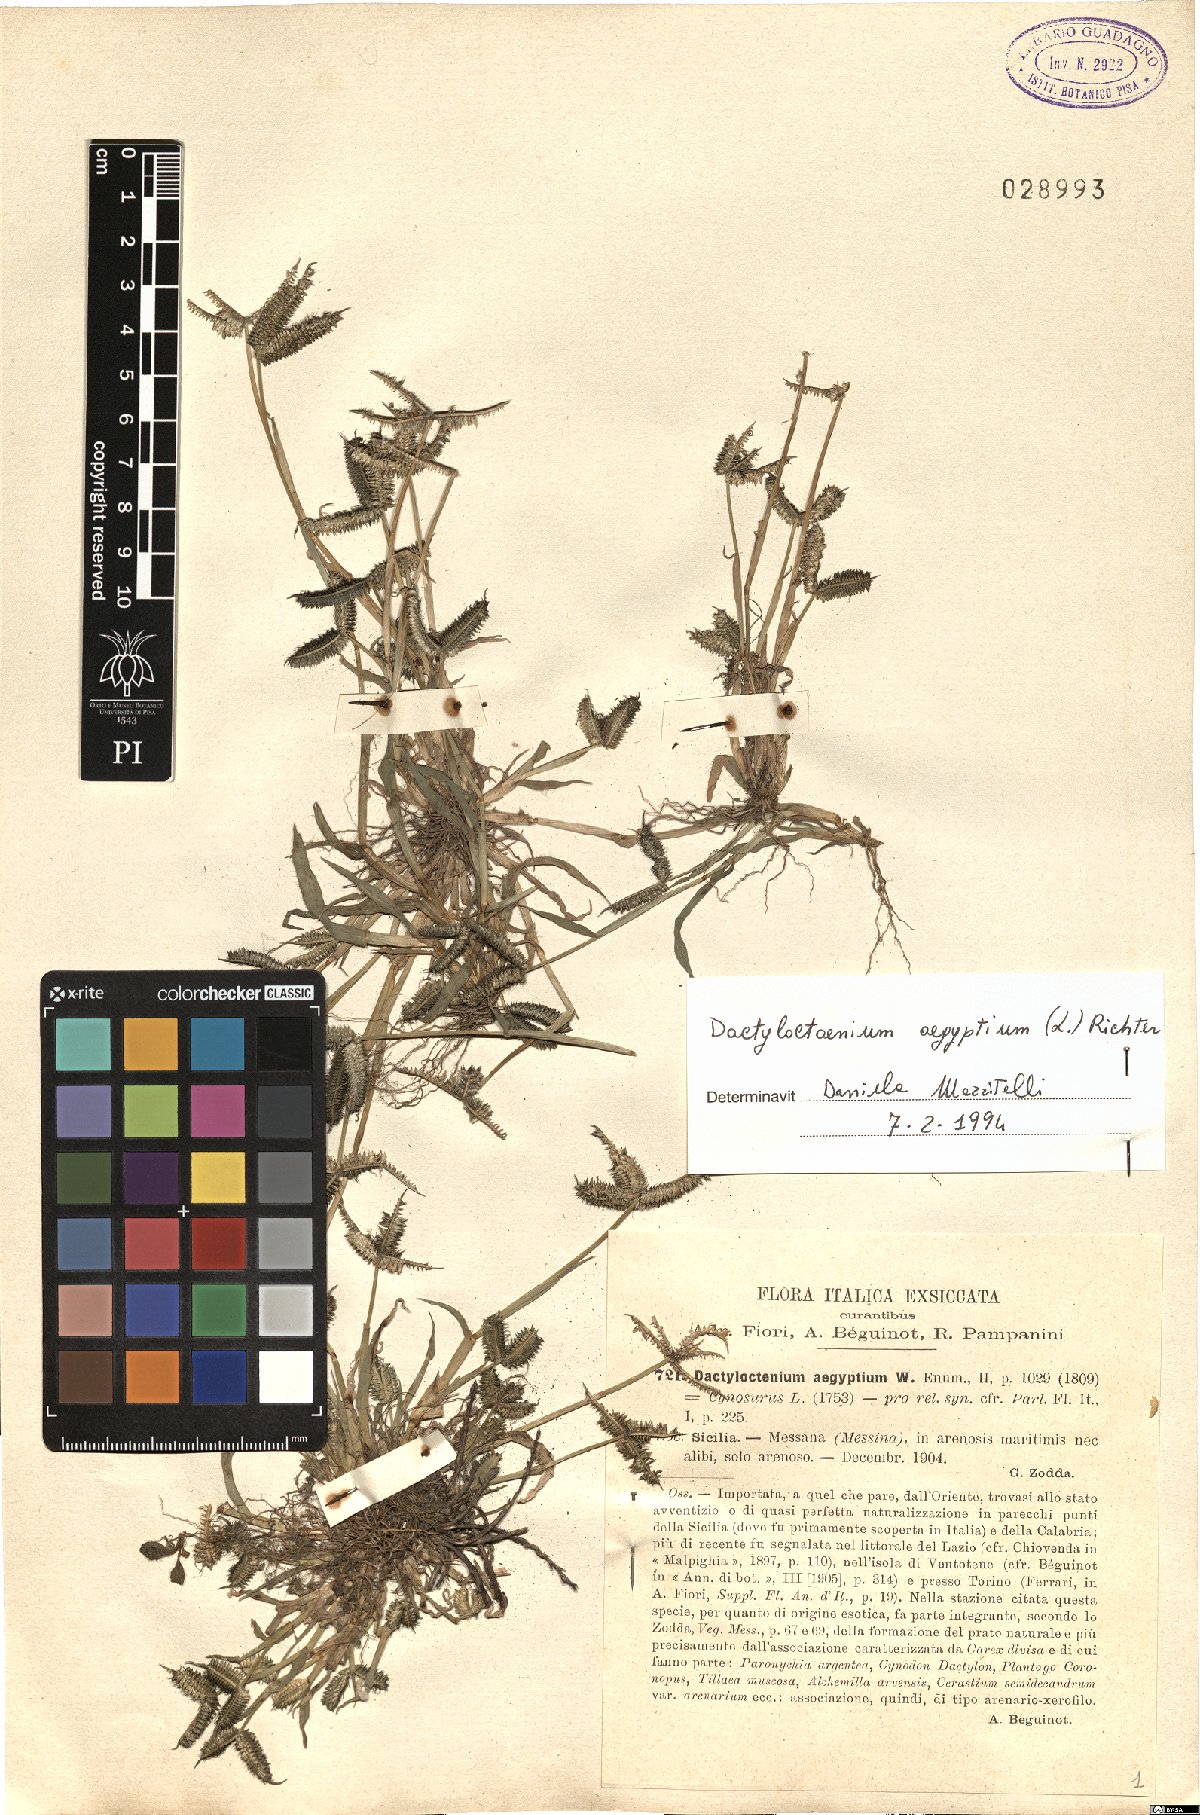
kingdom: Plantae
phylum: Tracheophyta
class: Liliopsida
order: Poales
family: Poaceae
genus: Dactyloctenium
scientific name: Dactyloctenium aegyptium
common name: Egyptian grass
